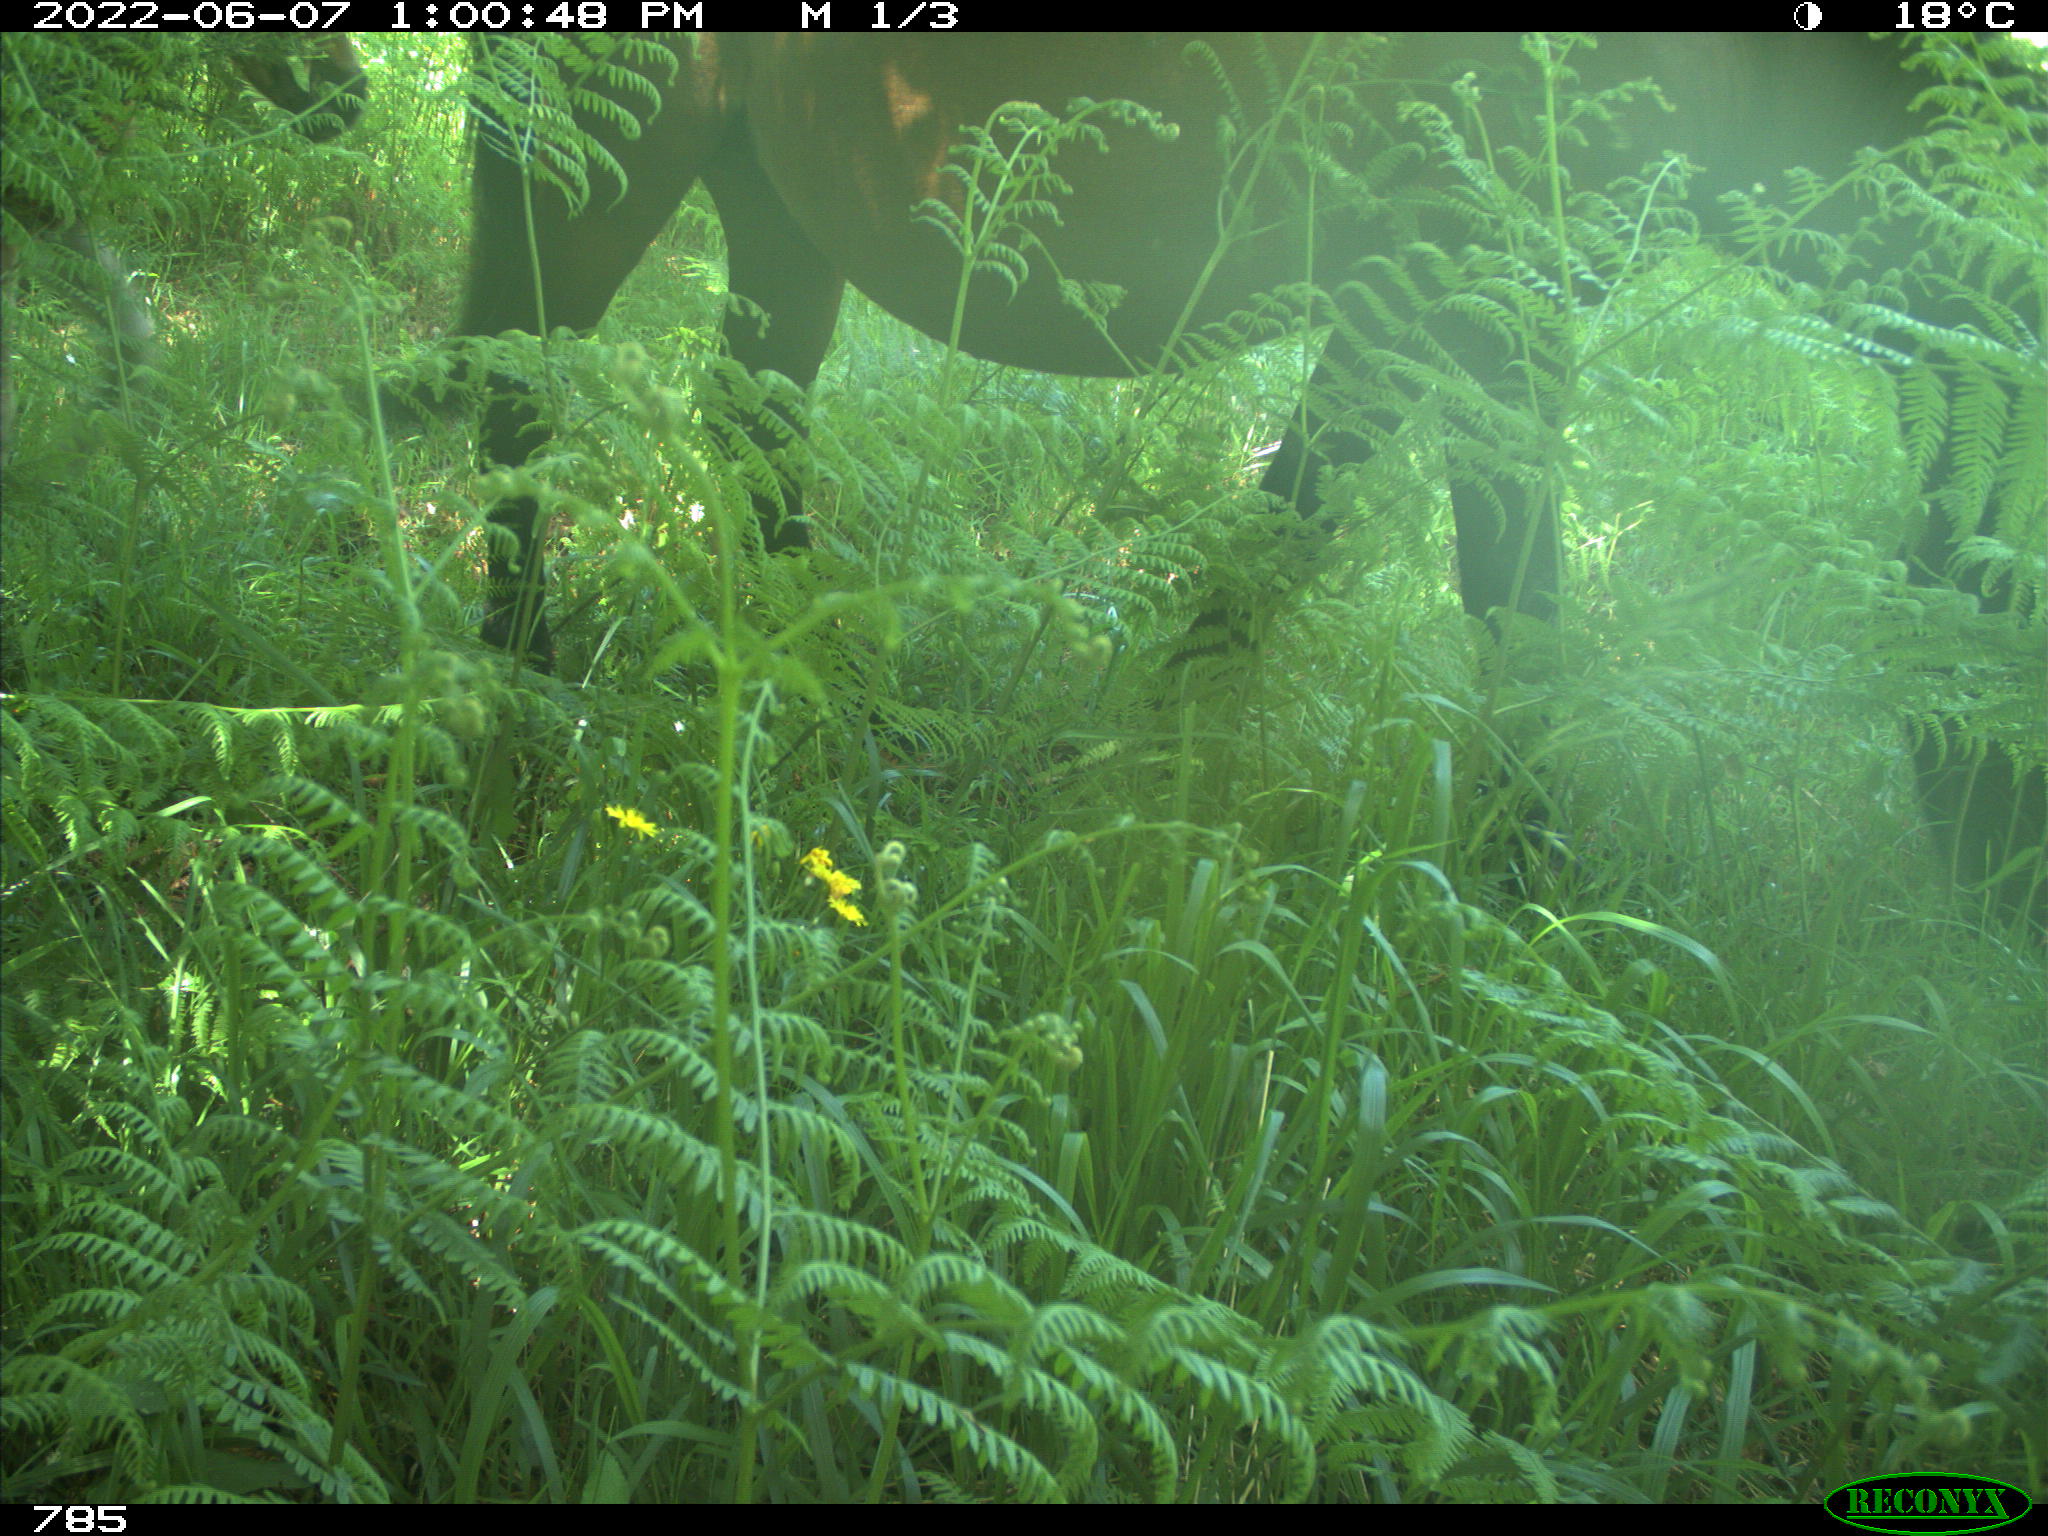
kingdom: Animalia
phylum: Chordata
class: Mammalia
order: Perissodactyla
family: Equidae
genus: Equus
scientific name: Equus caballus
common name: Horse
